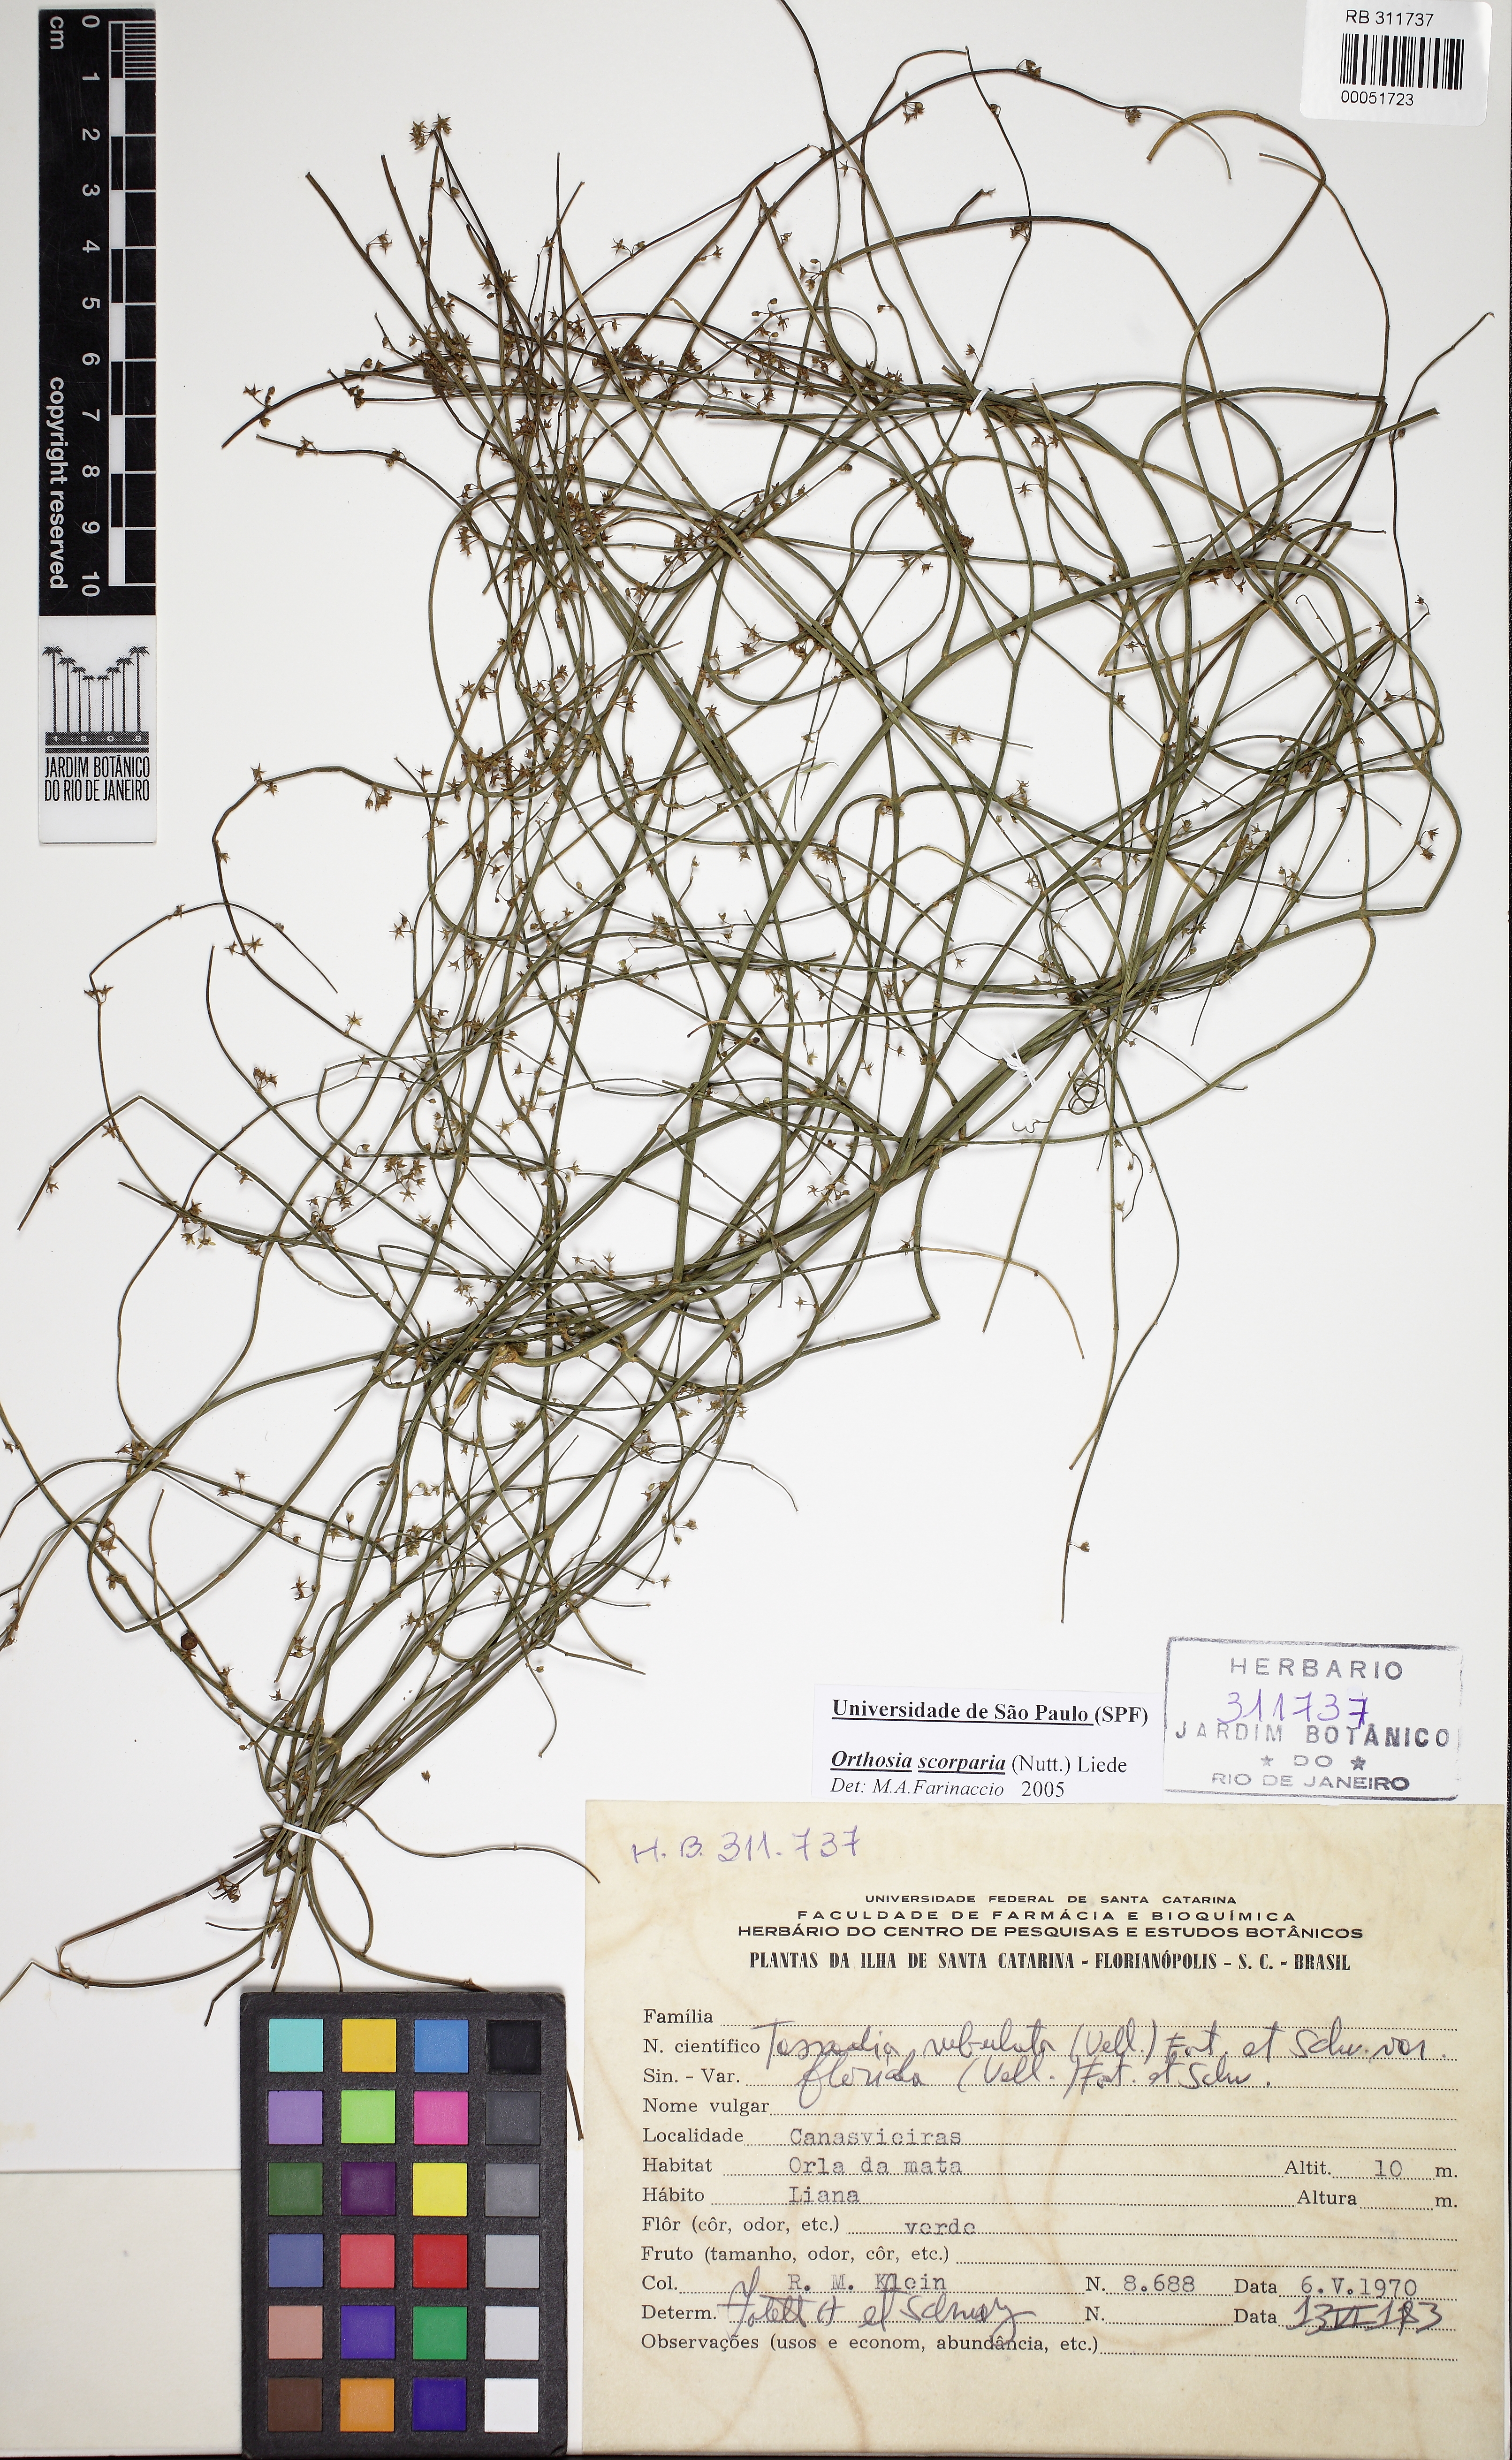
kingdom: Plantae
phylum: Tracheophyta
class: Magnoliopsida
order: Gentianales
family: Apocynaceae
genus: Orthosia
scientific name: Orthosia scoparia
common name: Leafless swallow-wort
